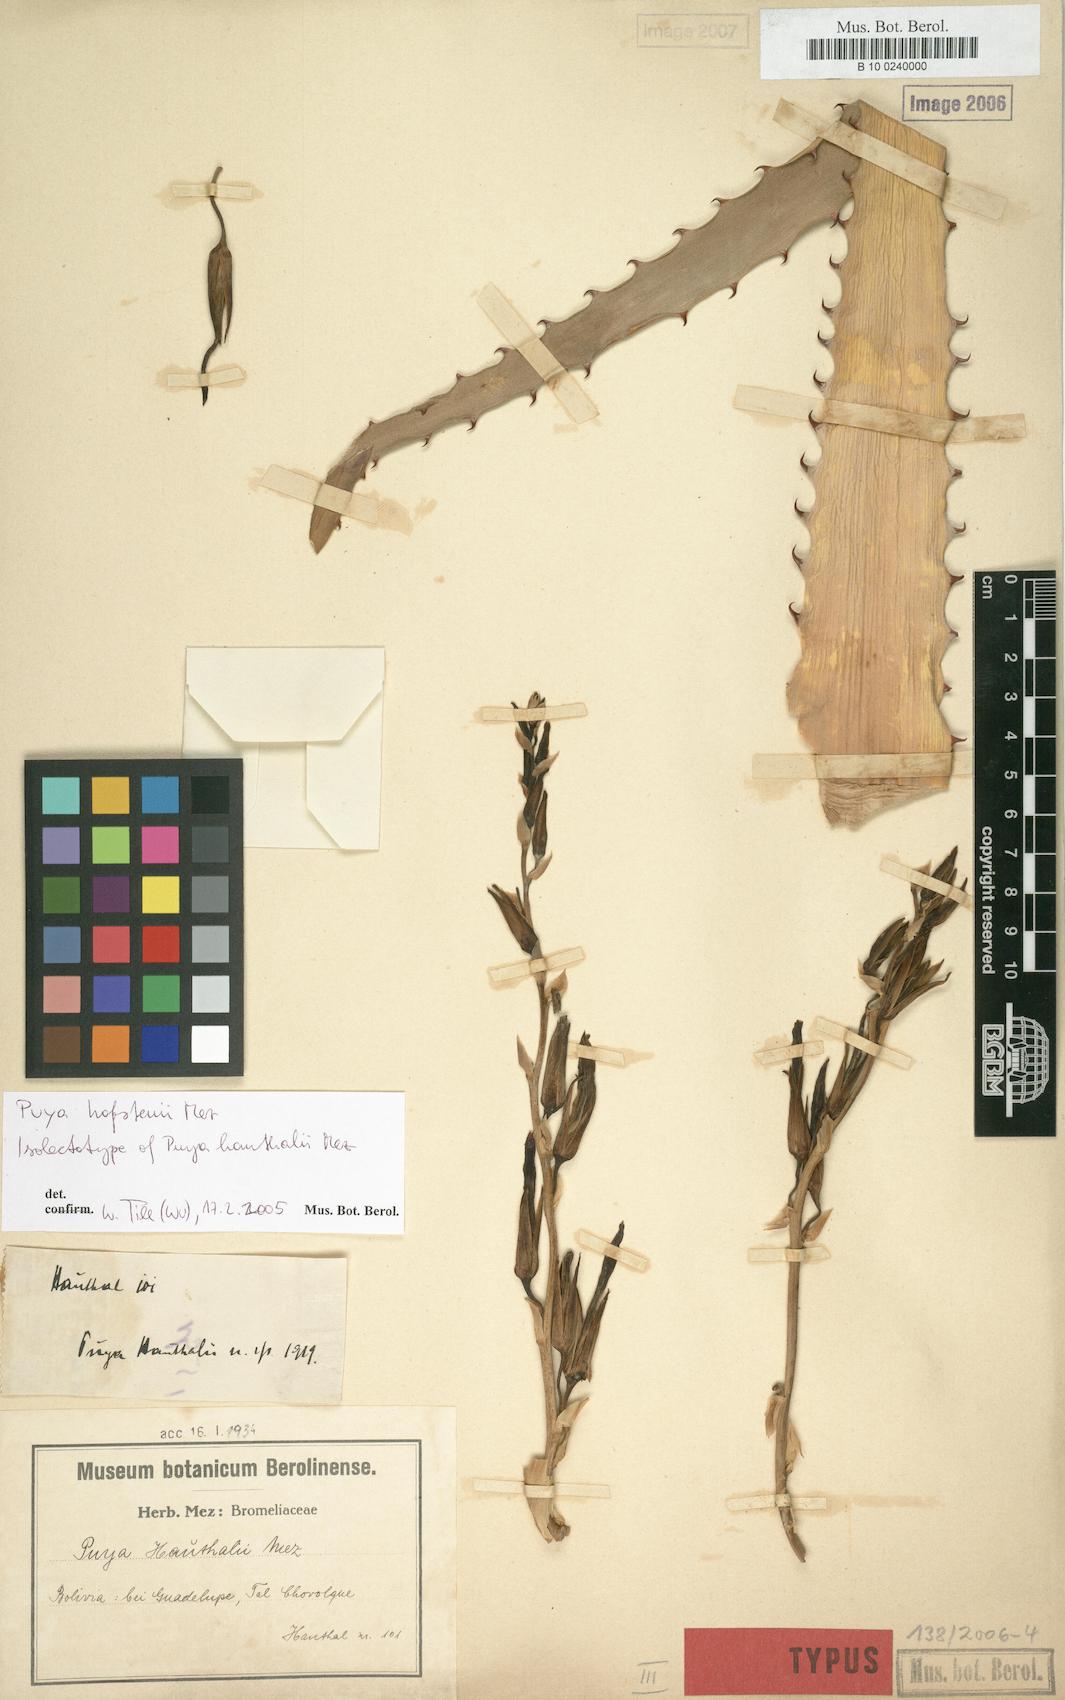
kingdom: Plantae
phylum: Tracheophyta
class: Liliopsida
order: Poales
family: Bromeliaceae
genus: Puya
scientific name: Puya hofstenii
